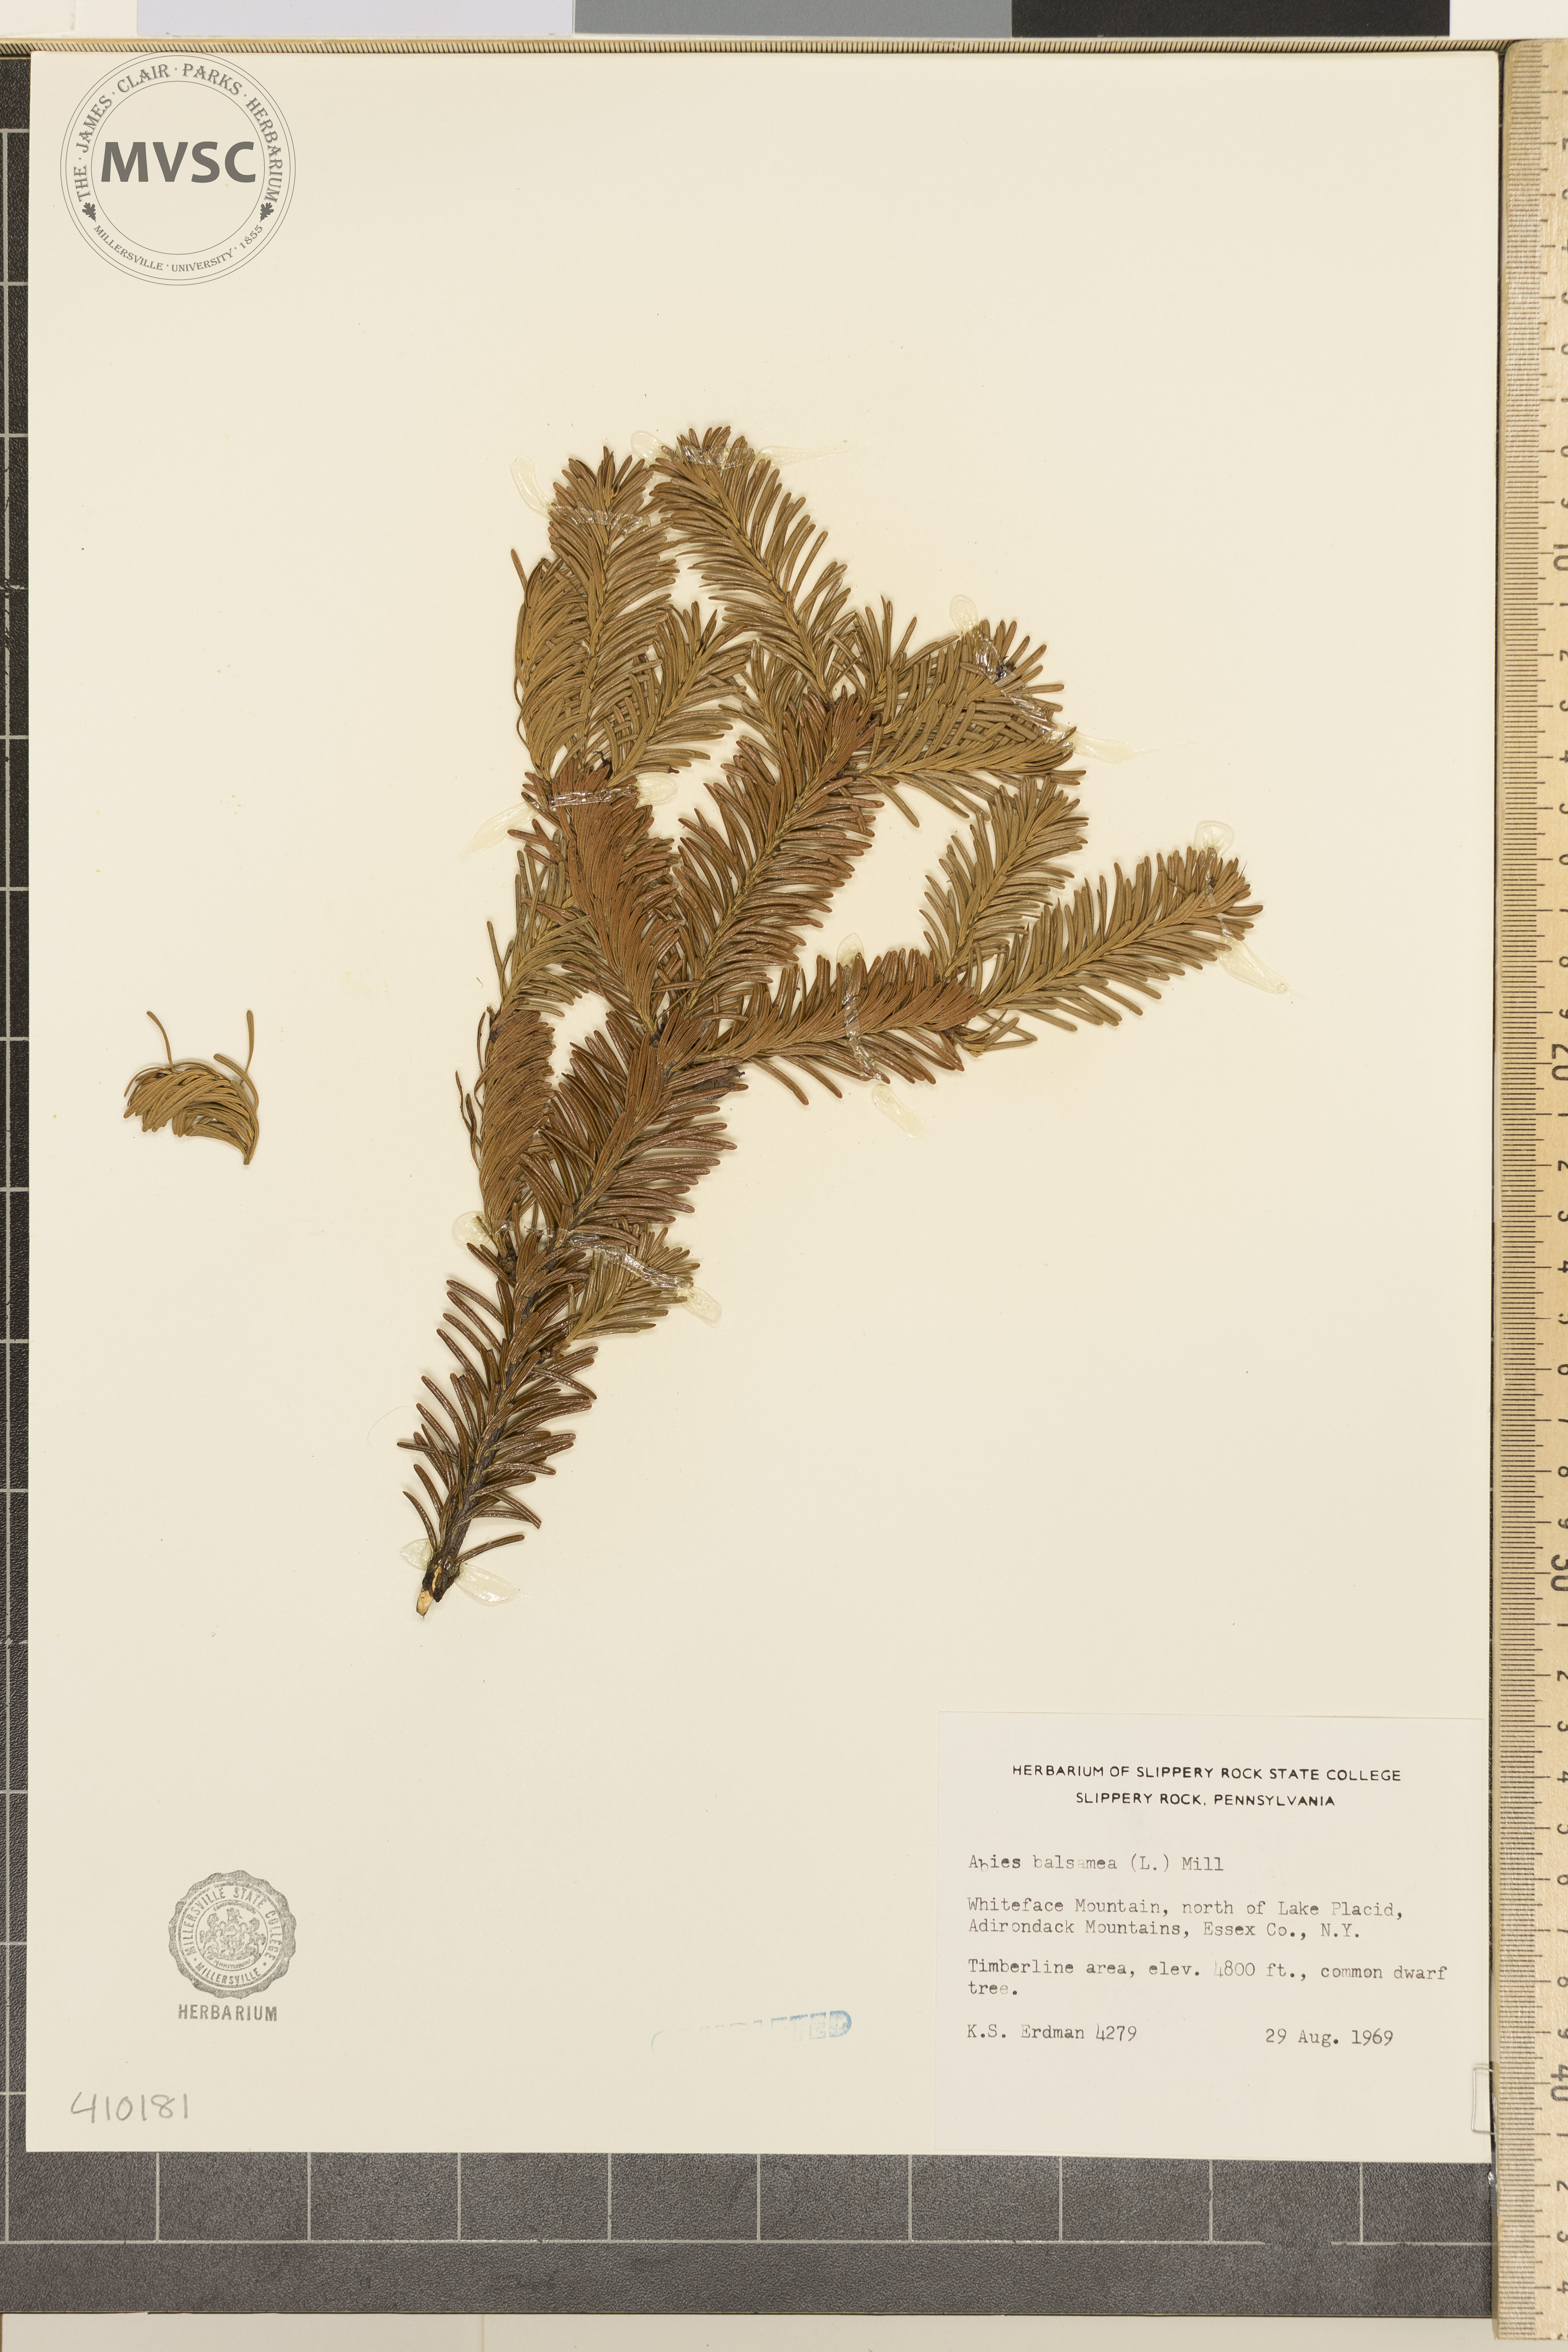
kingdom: Plantae
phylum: Tracheophyta
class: Pinopsida
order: Pinales
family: Pinaceae
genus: Abies
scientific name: Abies balsamea
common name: balsam fir
